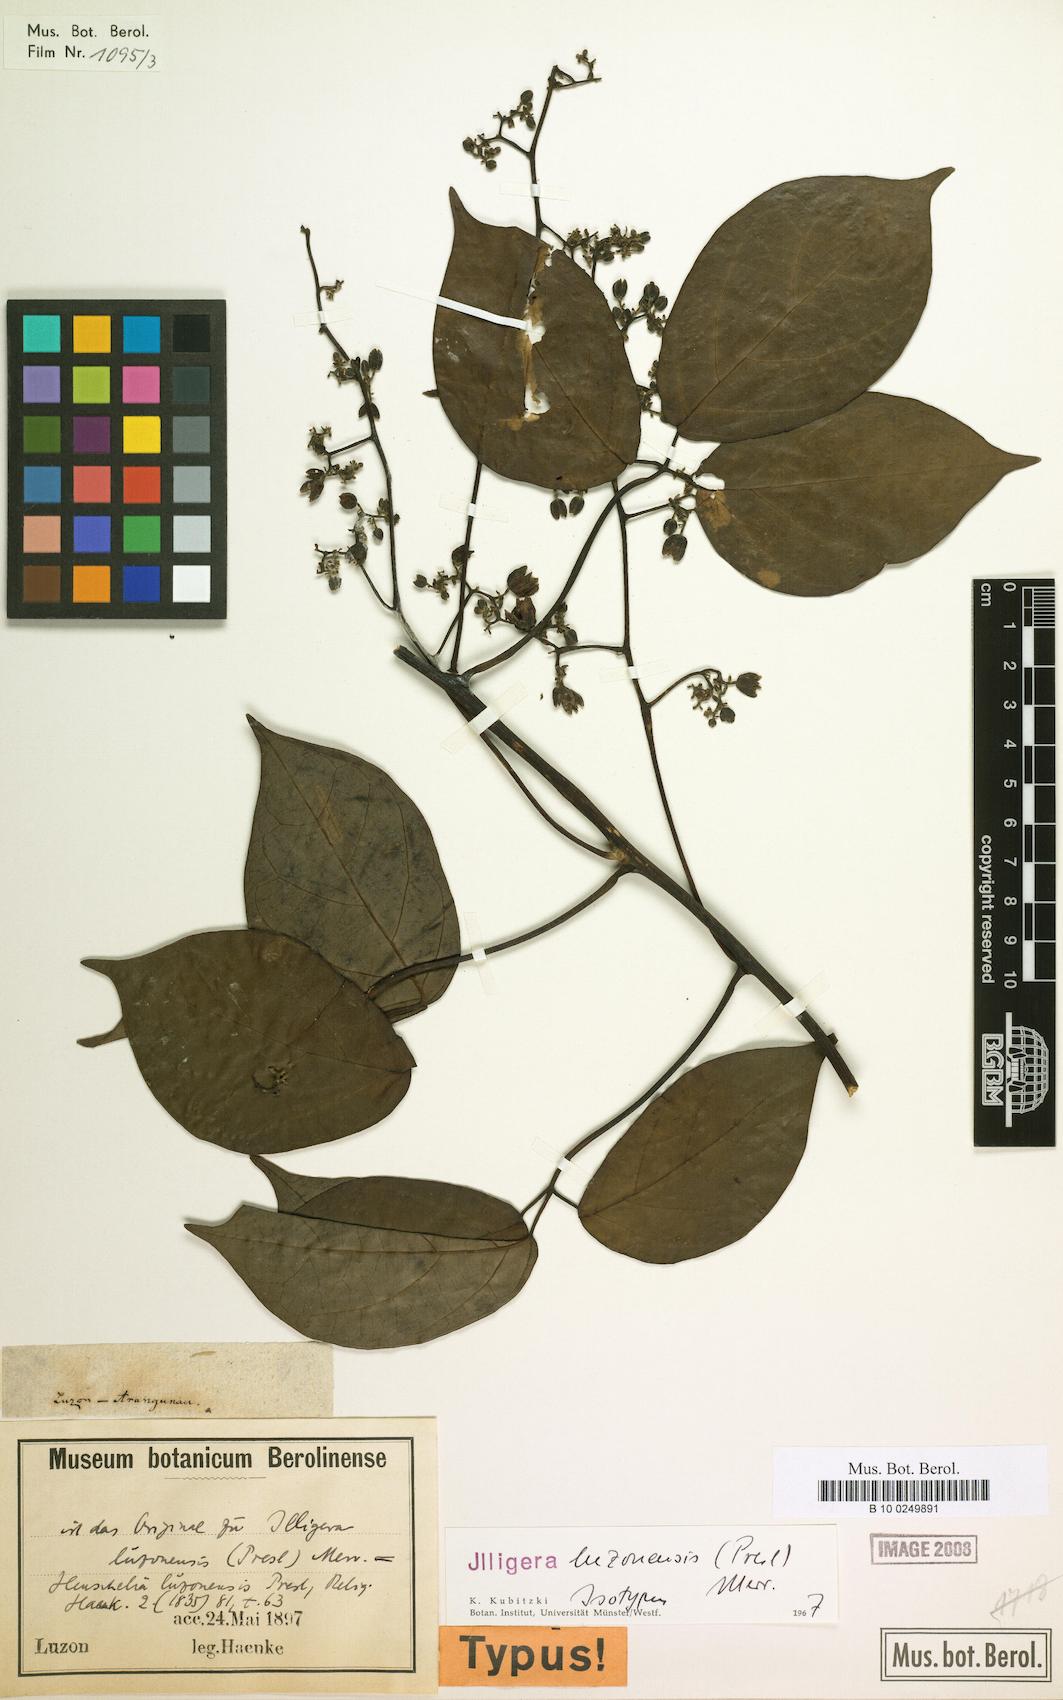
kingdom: Plantae
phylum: Tracheophyta
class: Magnoliopsida
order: Laurales
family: Hernandiaceae
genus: Illigera
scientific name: Illigera luzonensis
